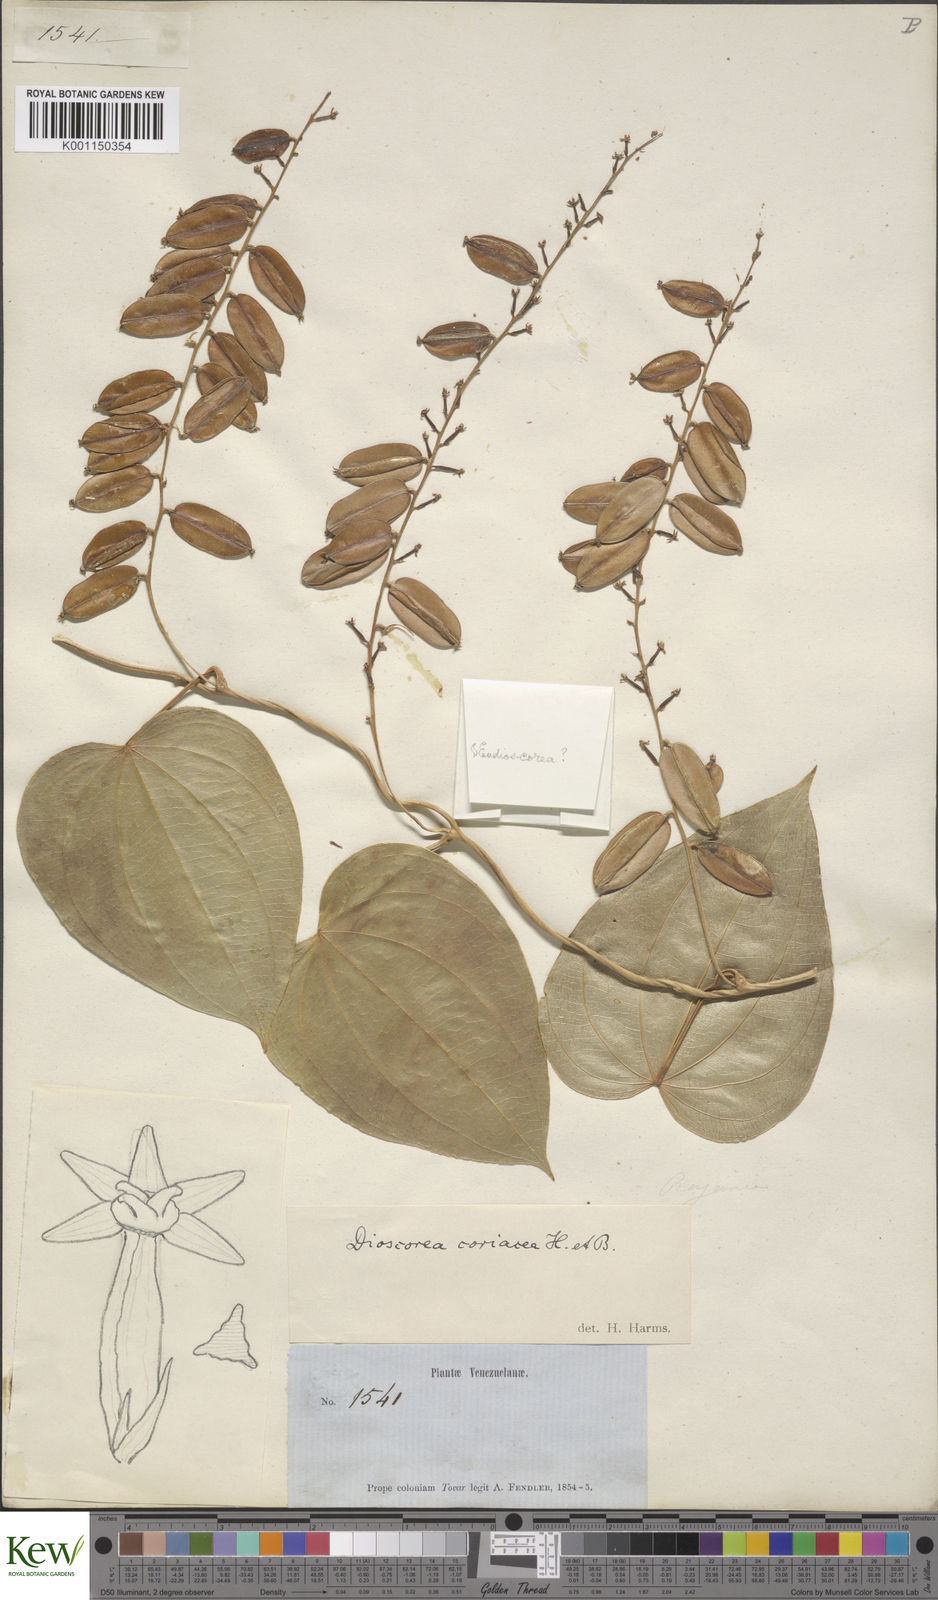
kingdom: Plantae
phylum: Tracheophyta
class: Liliopsida
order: Dioscoreales
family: Dioscoreaceae
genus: Dioscorea
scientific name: Dioscorea coriacea
